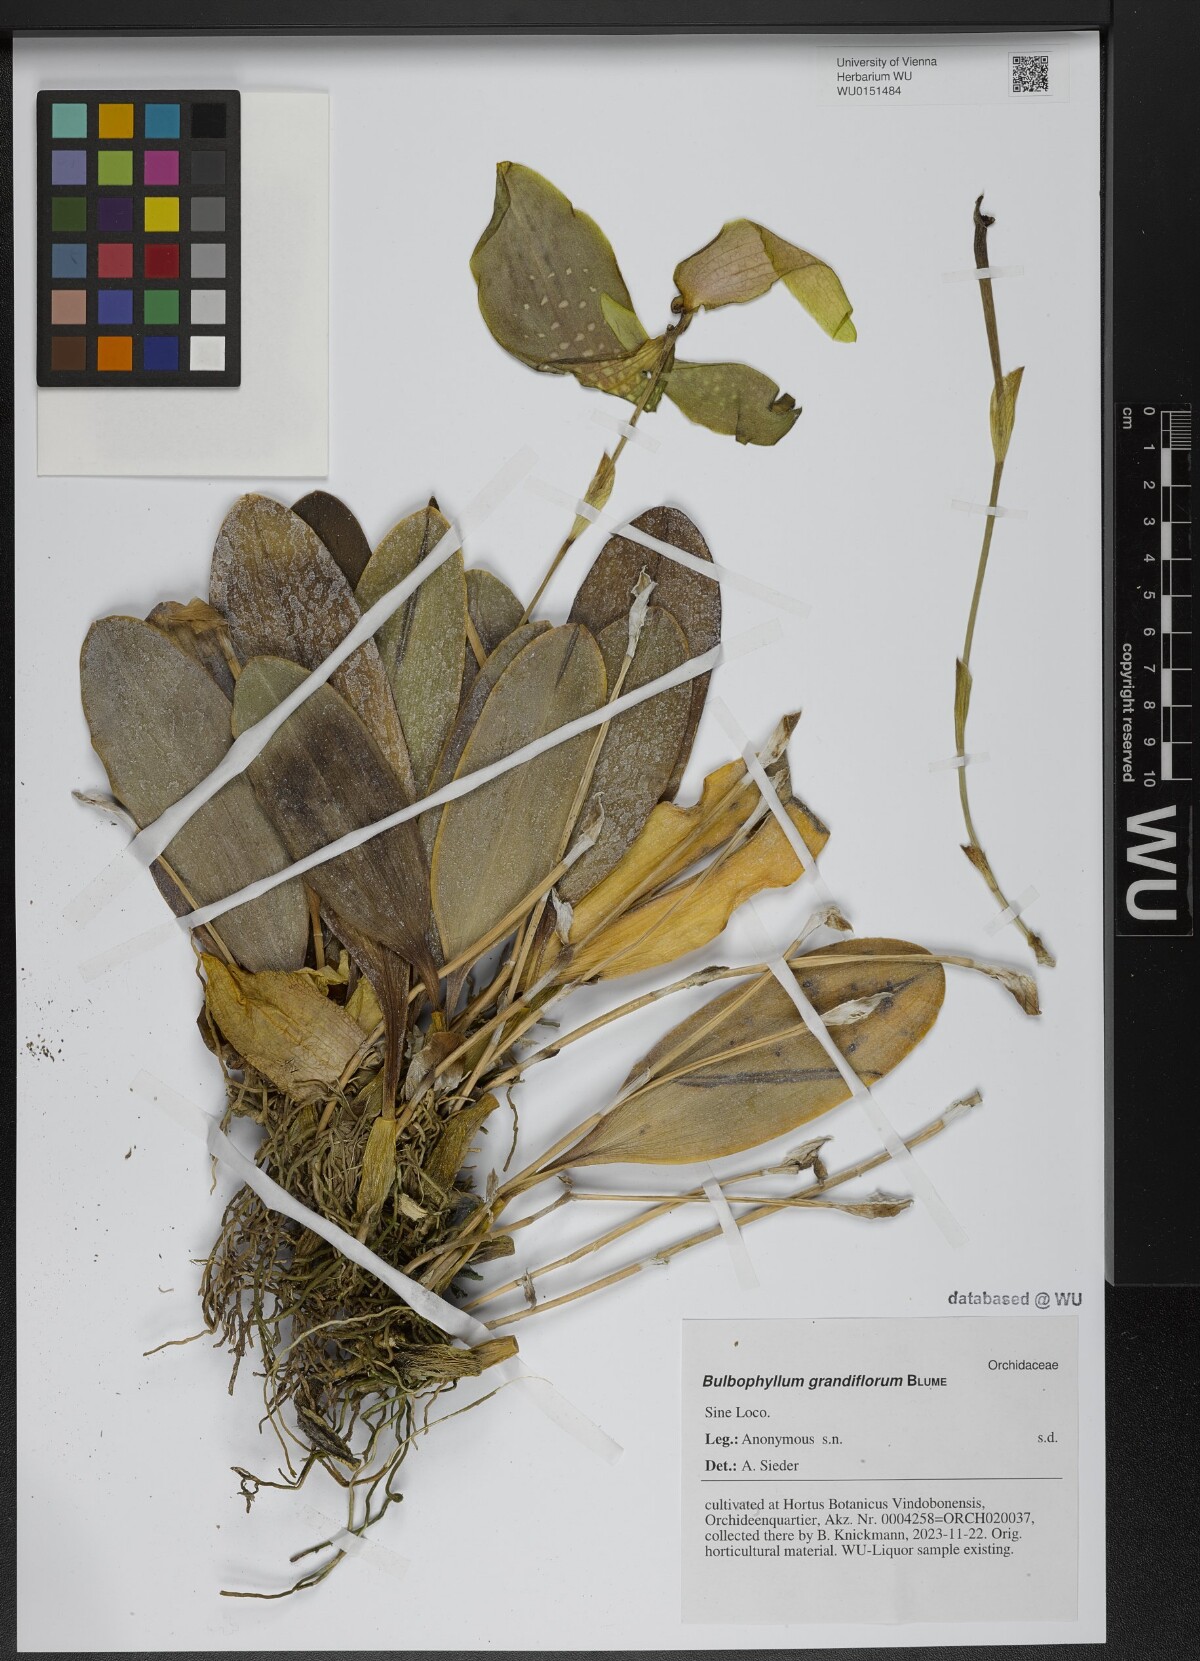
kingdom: Plantae
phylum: Tracheophyta
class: Liliopsida
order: Asparagales
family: Orchidaceae
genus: Bulbophyllum
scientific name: Bulbophyllum grandiflorum
